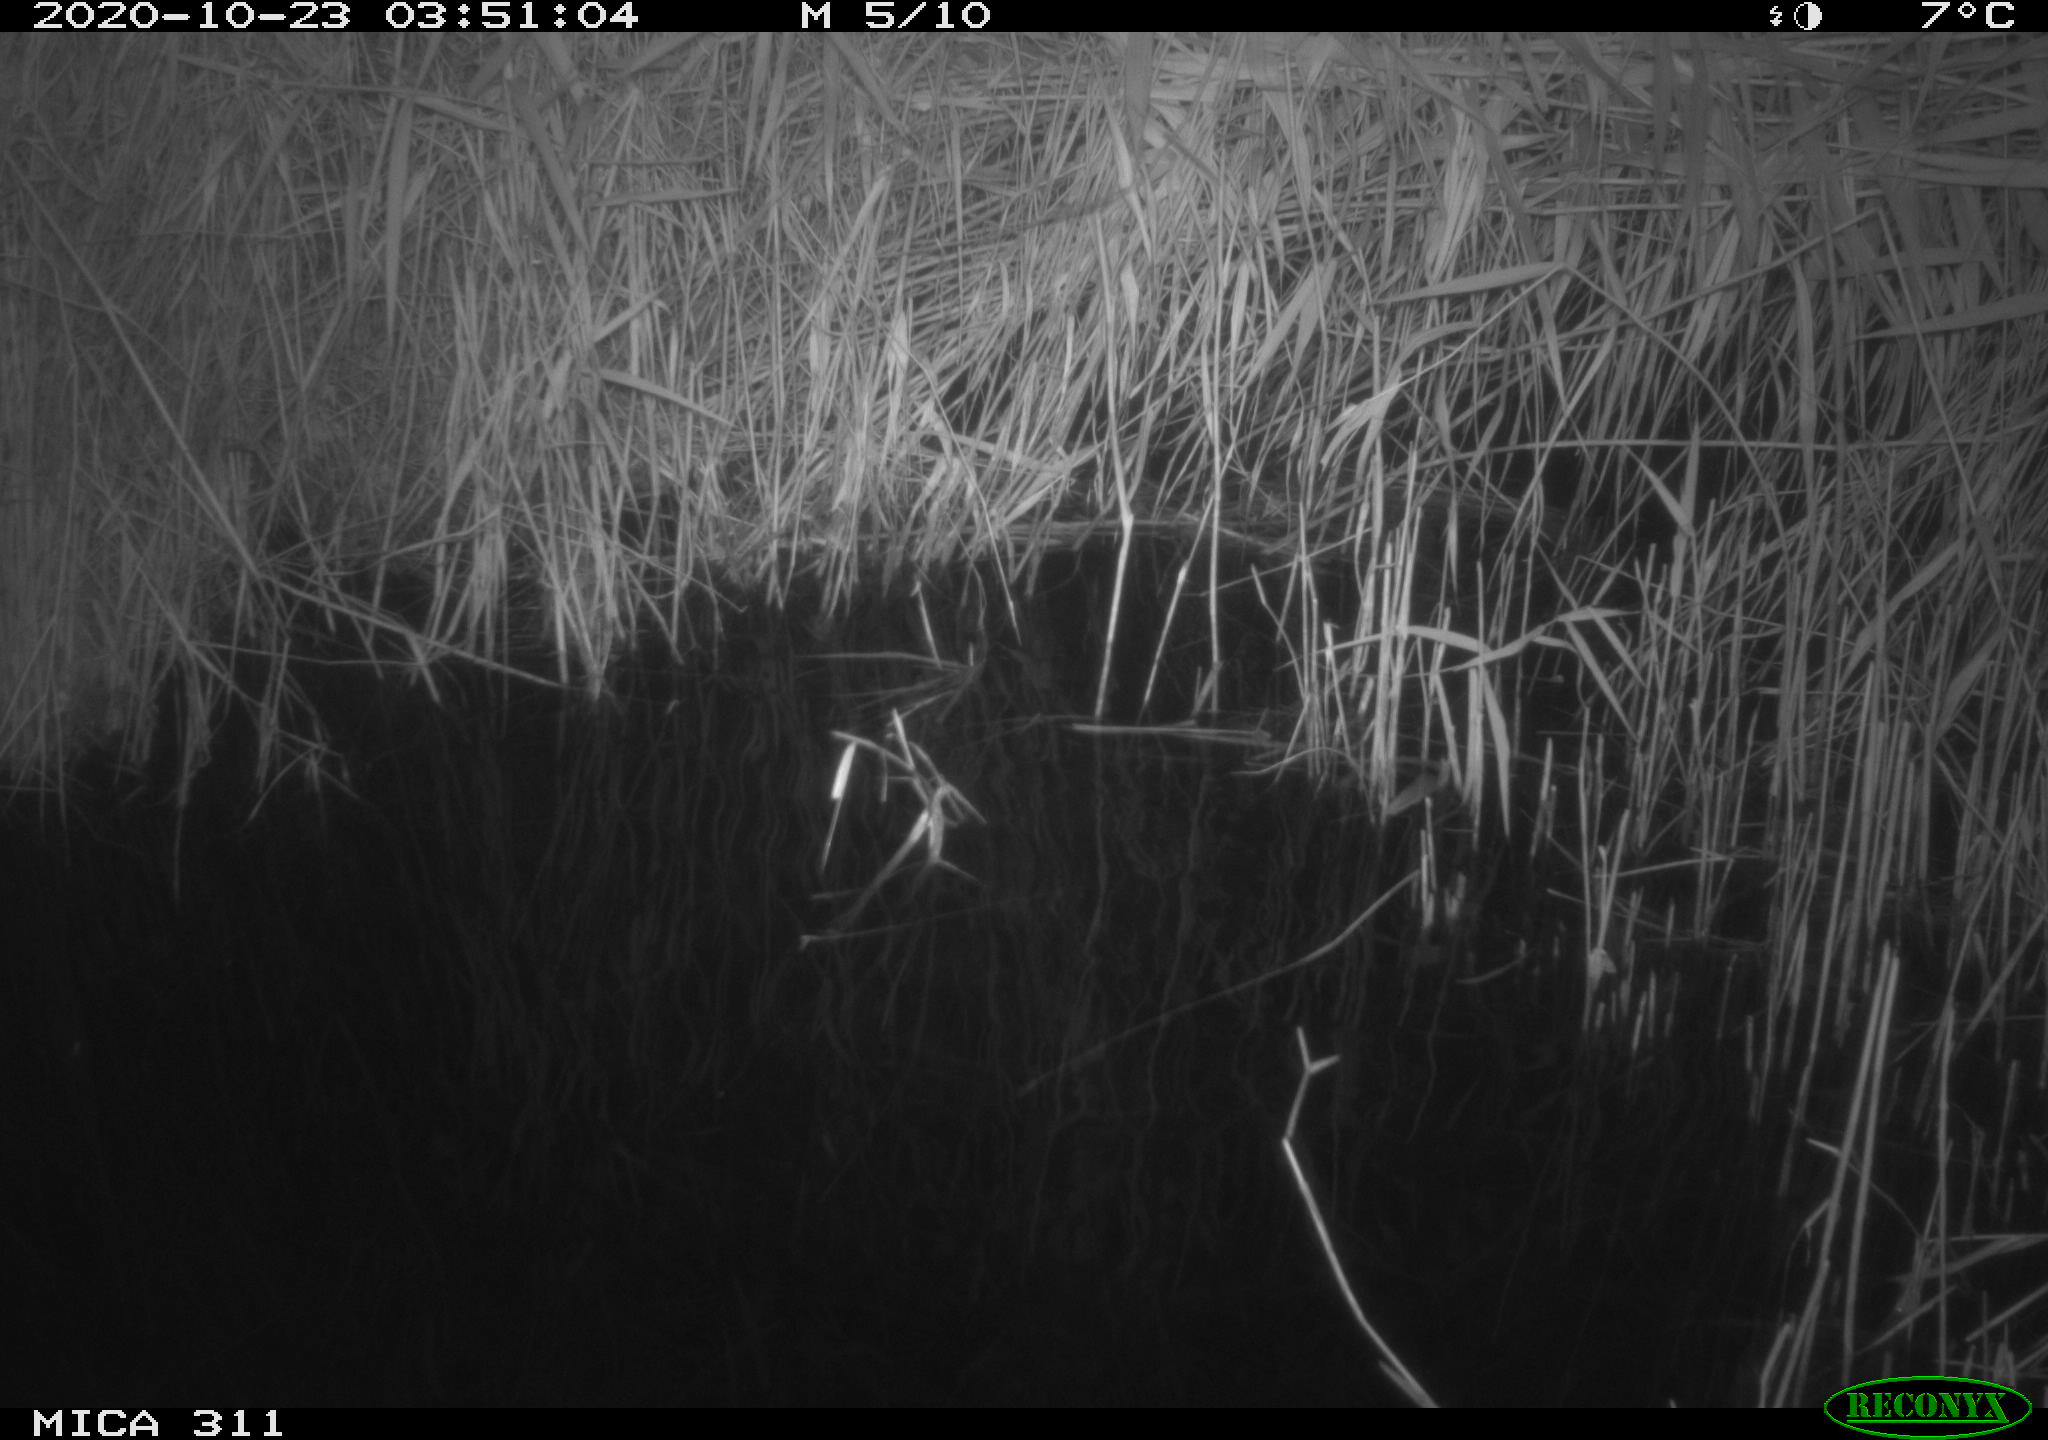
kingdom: Animalia
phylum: Chordata
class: Mammalia
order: Rodentia
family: Muridae
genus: Rattus
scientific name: Rattus norvegicus
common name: Brown rat
